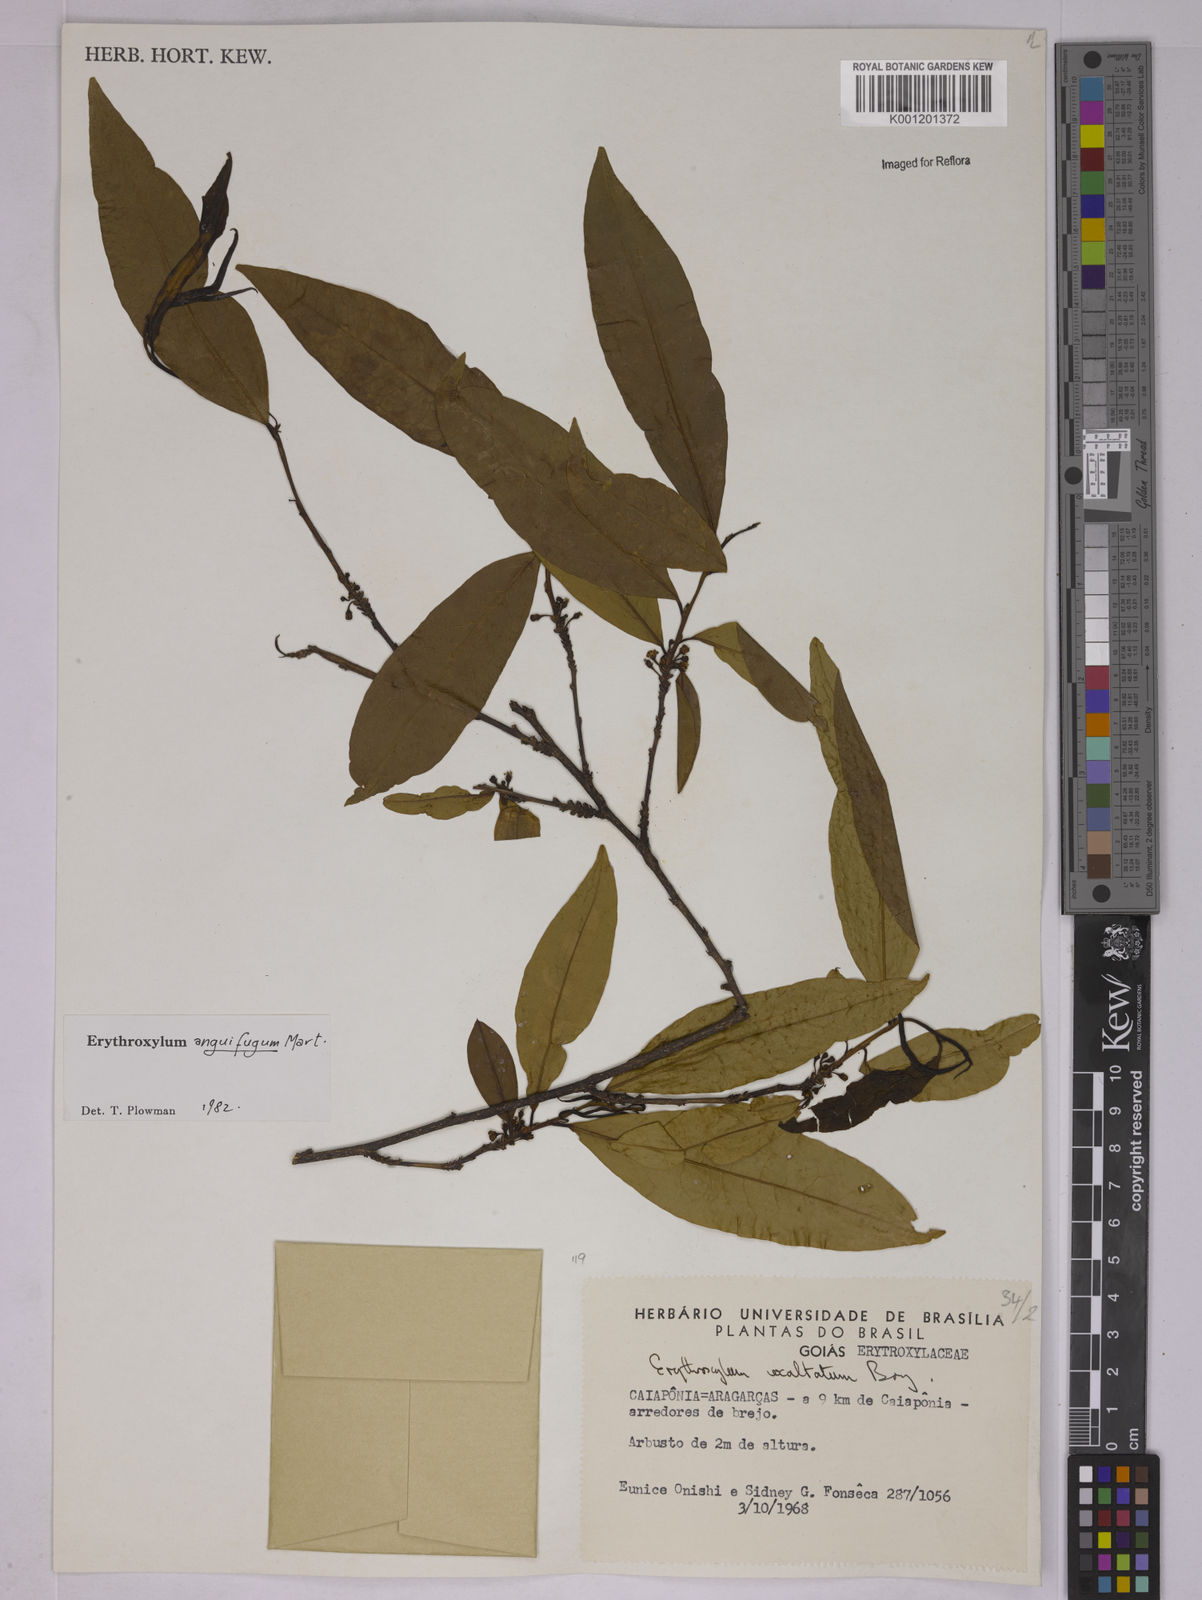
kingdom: Plantae
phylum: Tracheophyta
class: Magnoliopsida
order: Malpighiales
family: Erythroxylaceae
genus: Erythroxylum
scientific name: Erythroxylum anguifugum
